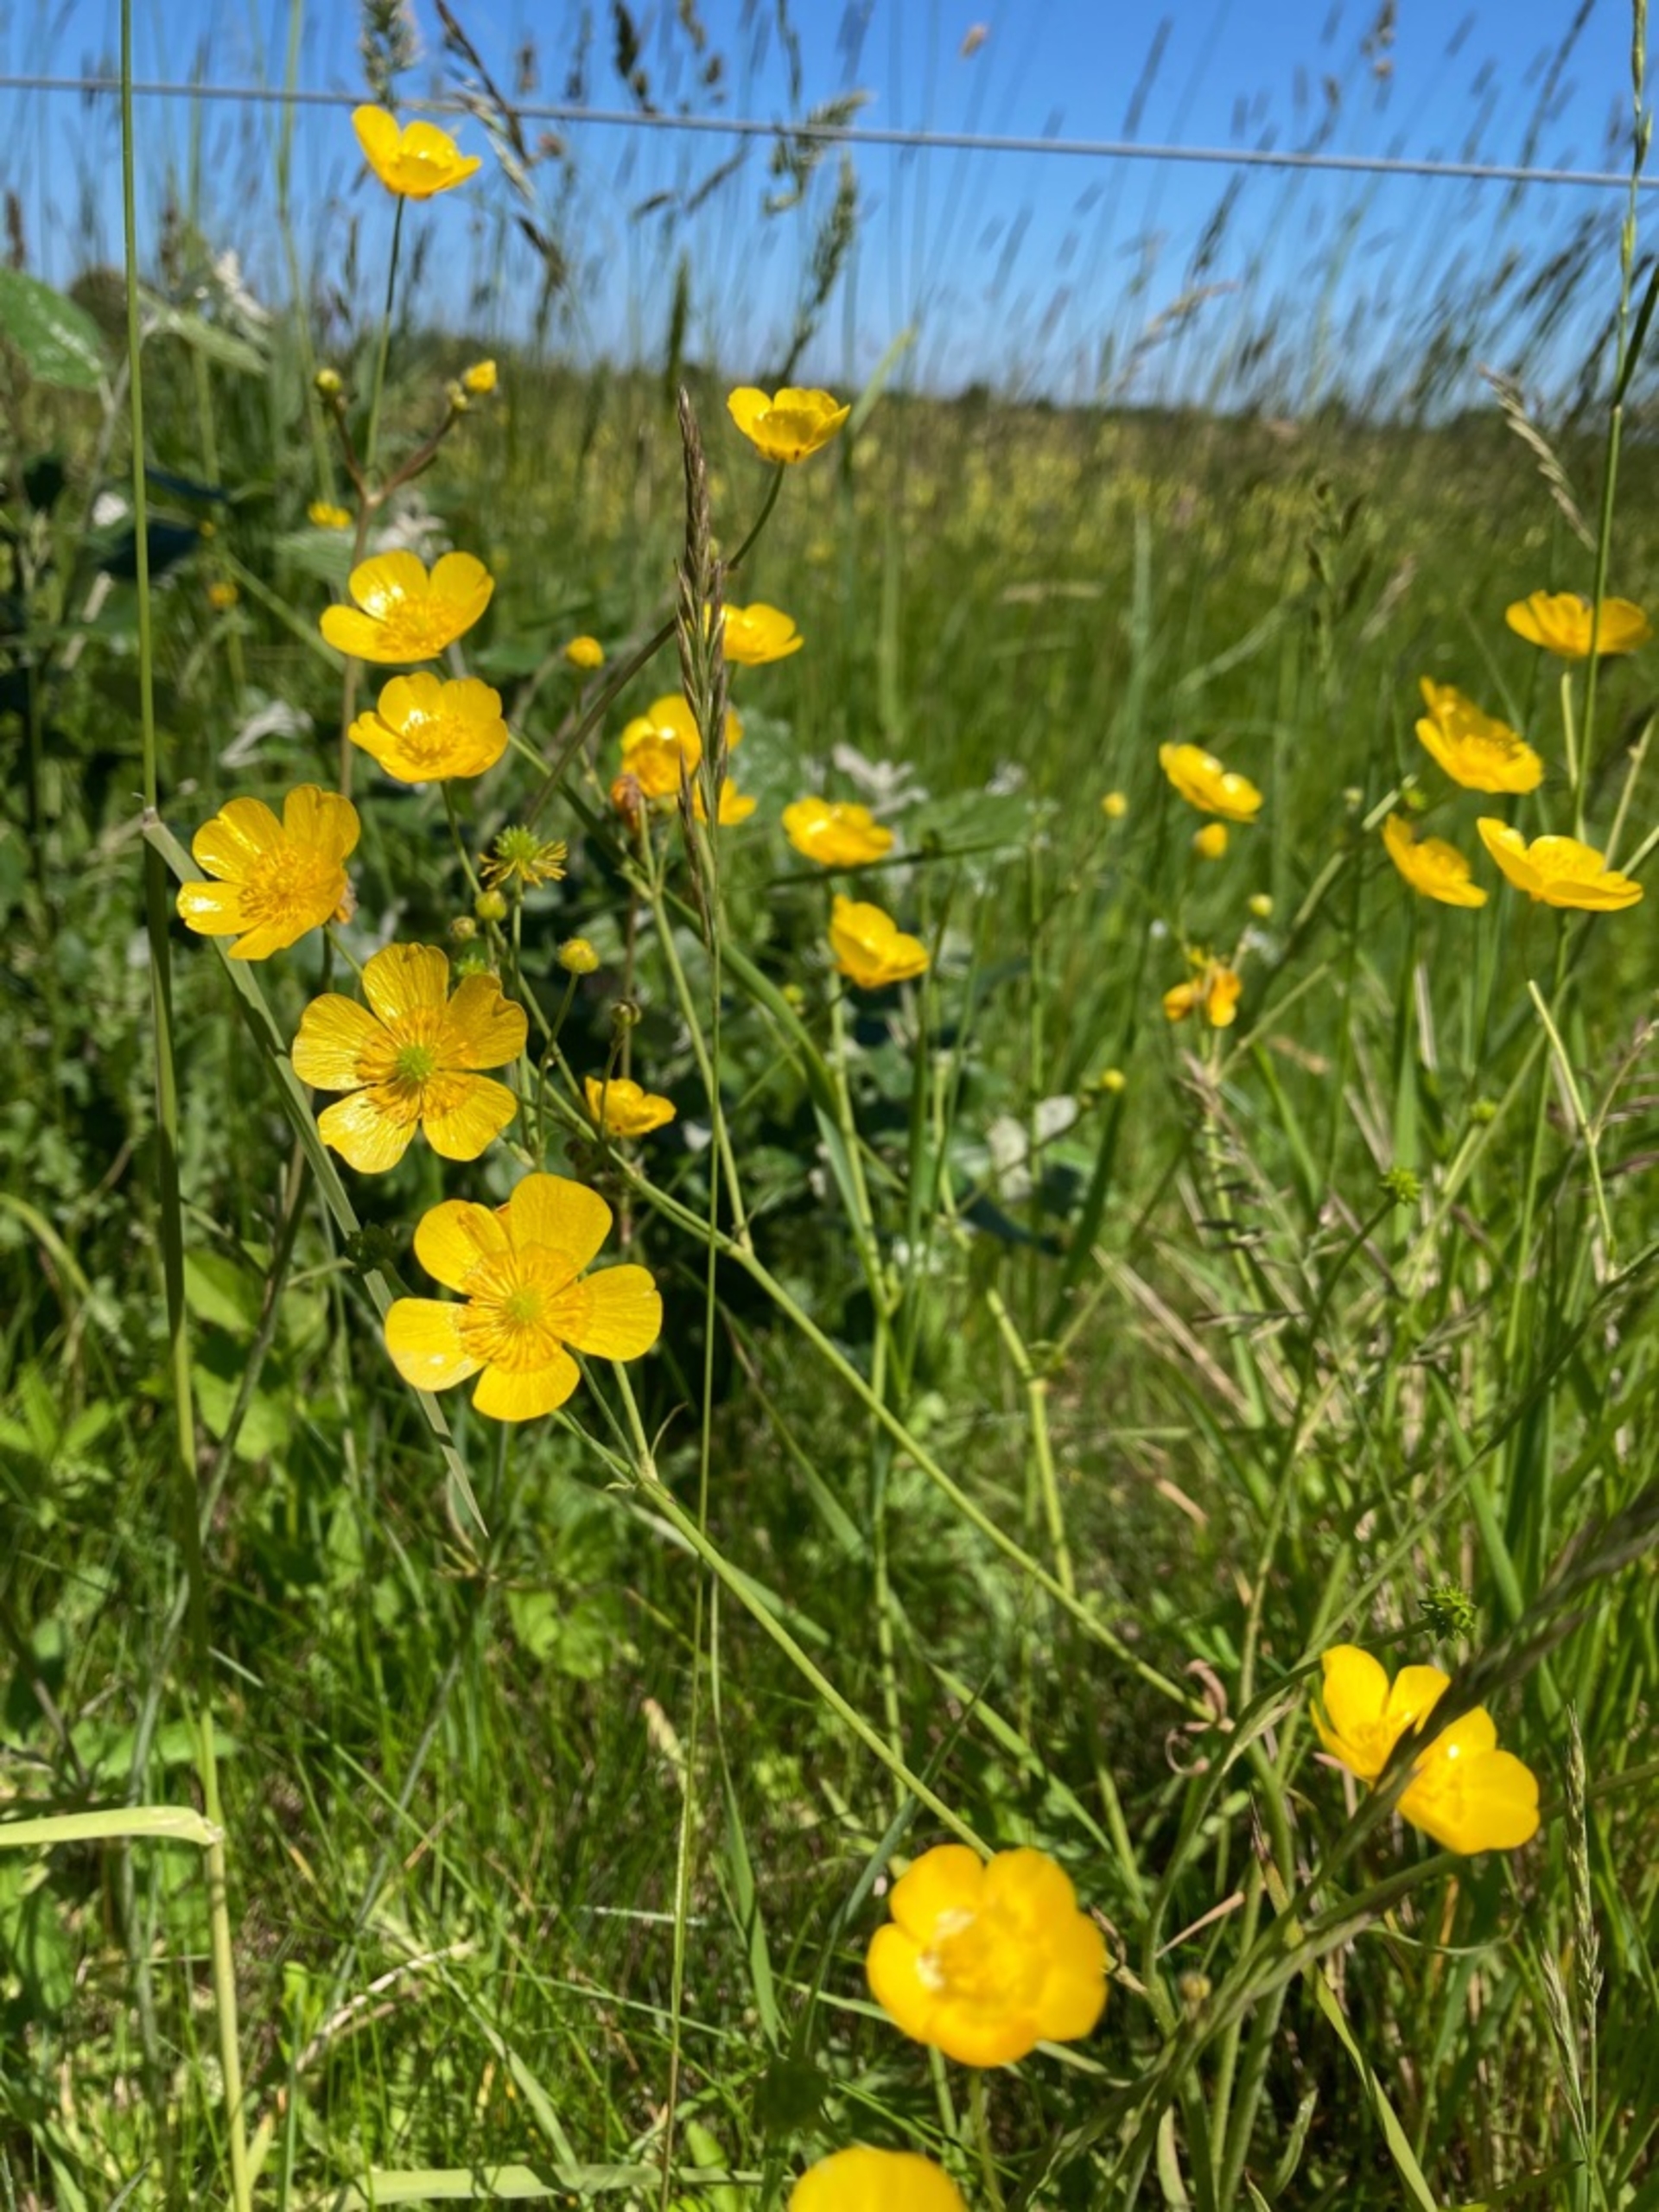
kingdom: Plantae
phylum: Tracheophyta
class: Magnoliopsida
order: Ranunculales
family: Ranunculaceae
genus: Ranunculus
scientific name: Ranunculus acris
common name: Bidende ranunkel
